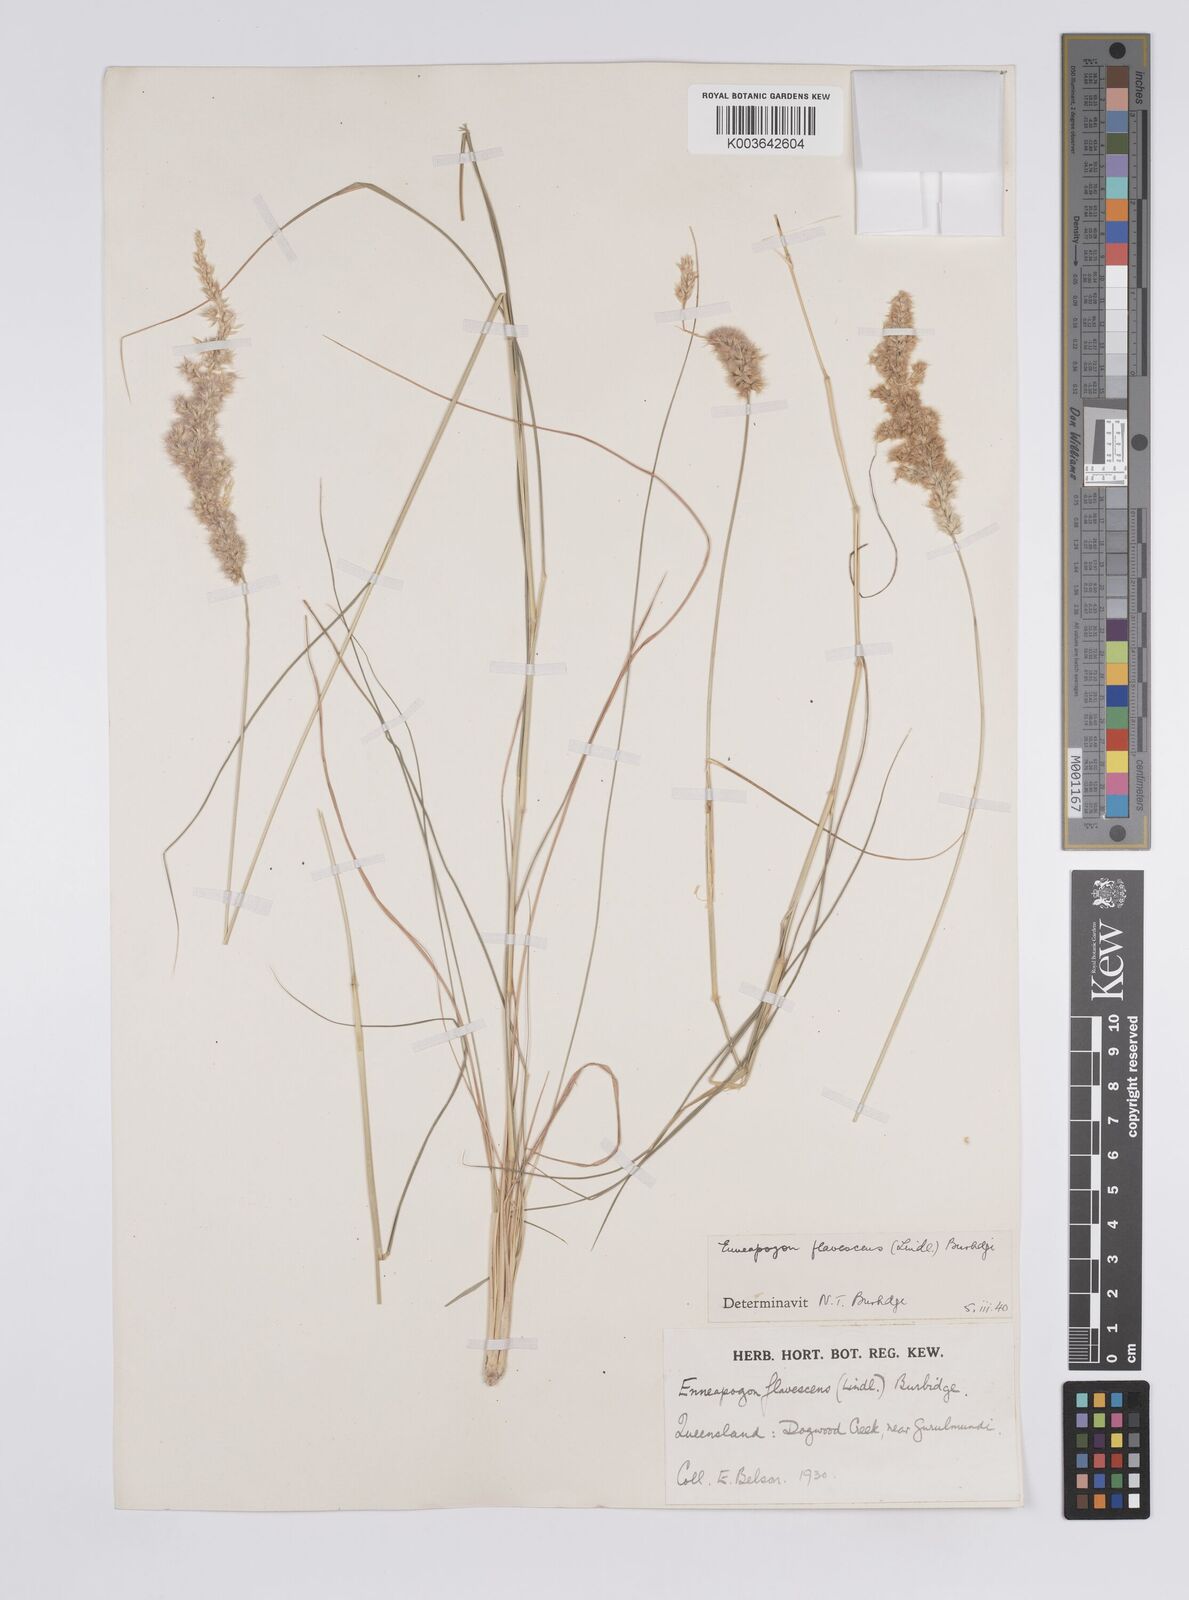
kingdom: Plantae
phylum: Tracheophyta
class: Liliopsida
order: Poales
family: Poaceae
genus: Enneapogon
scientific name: Enneapogon truncatus
